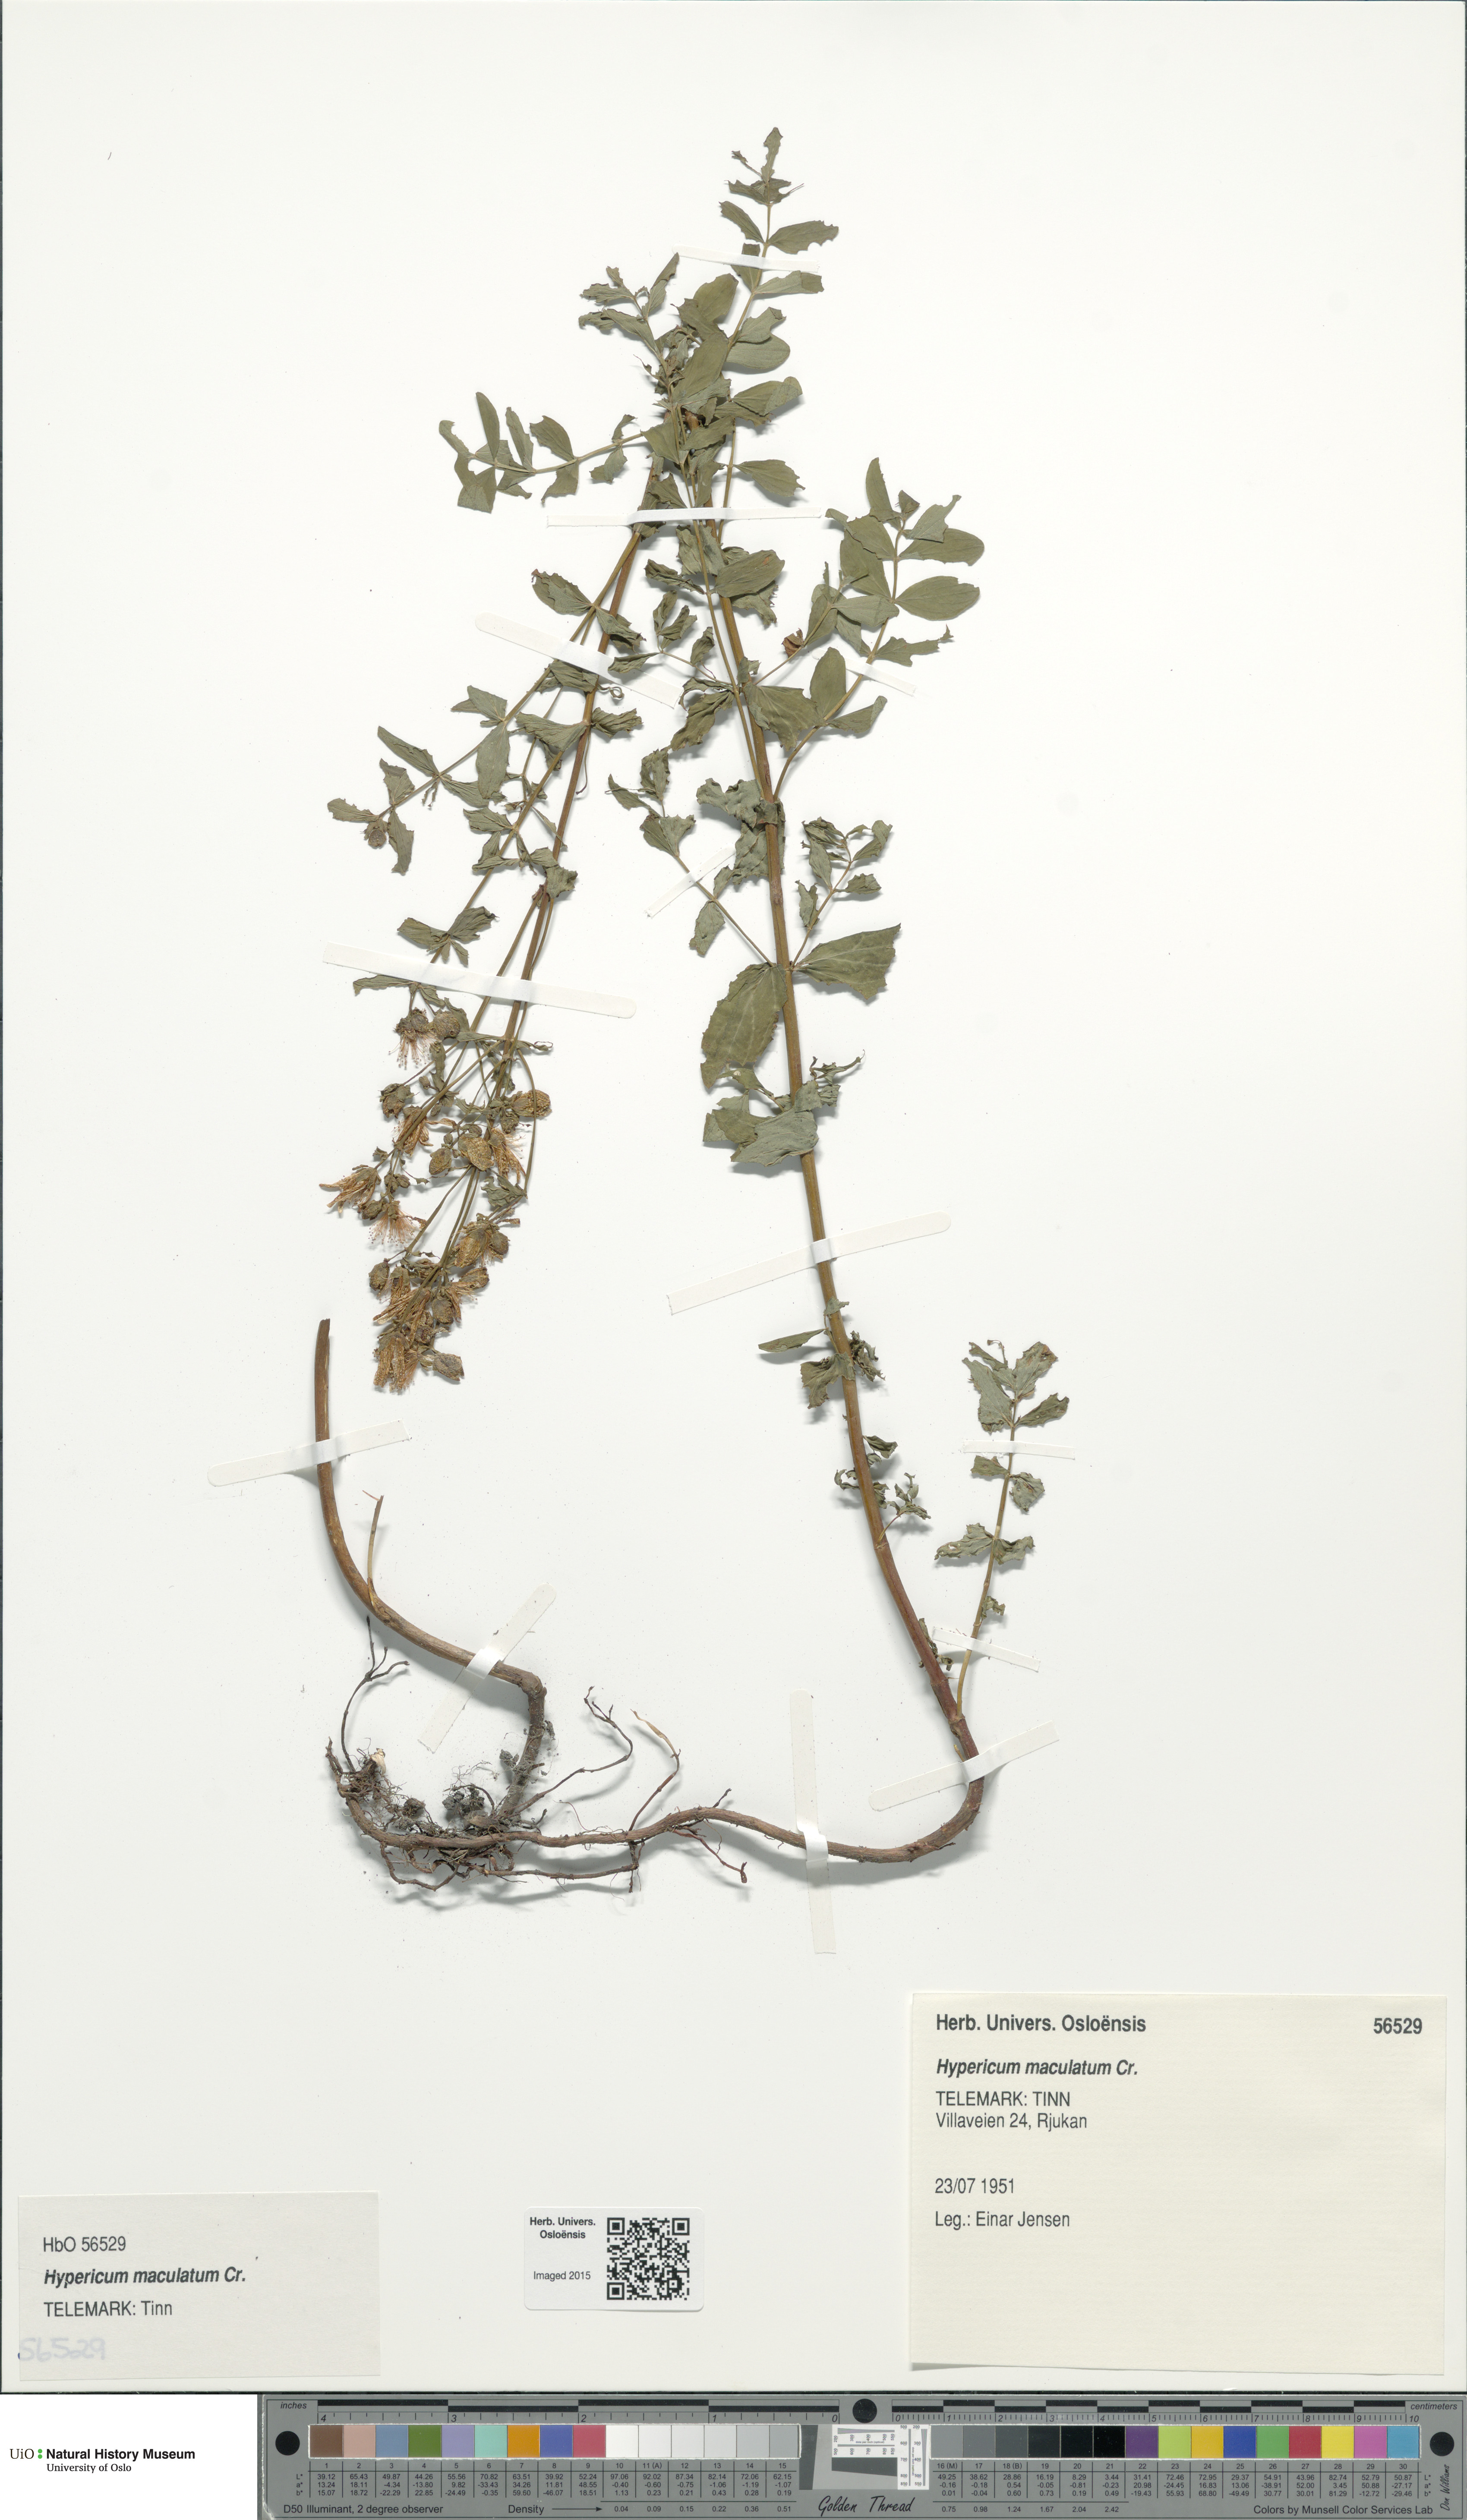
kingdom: Plantae
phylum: Tracheophyta
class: Magnoliopsida
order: Malpighiales
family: Hypericaceae
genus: Hypericum
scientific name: Hypericum maculatum
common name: Imperforate st. john's-wort
